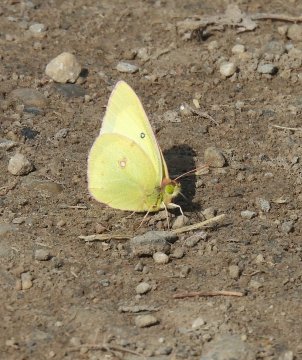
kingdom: Animalia
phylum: Arthropoda
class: Insecta
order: Lepidoptera
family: Pieridae
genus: Colias
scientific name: Colias philodice
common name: Clouded Sulphur
